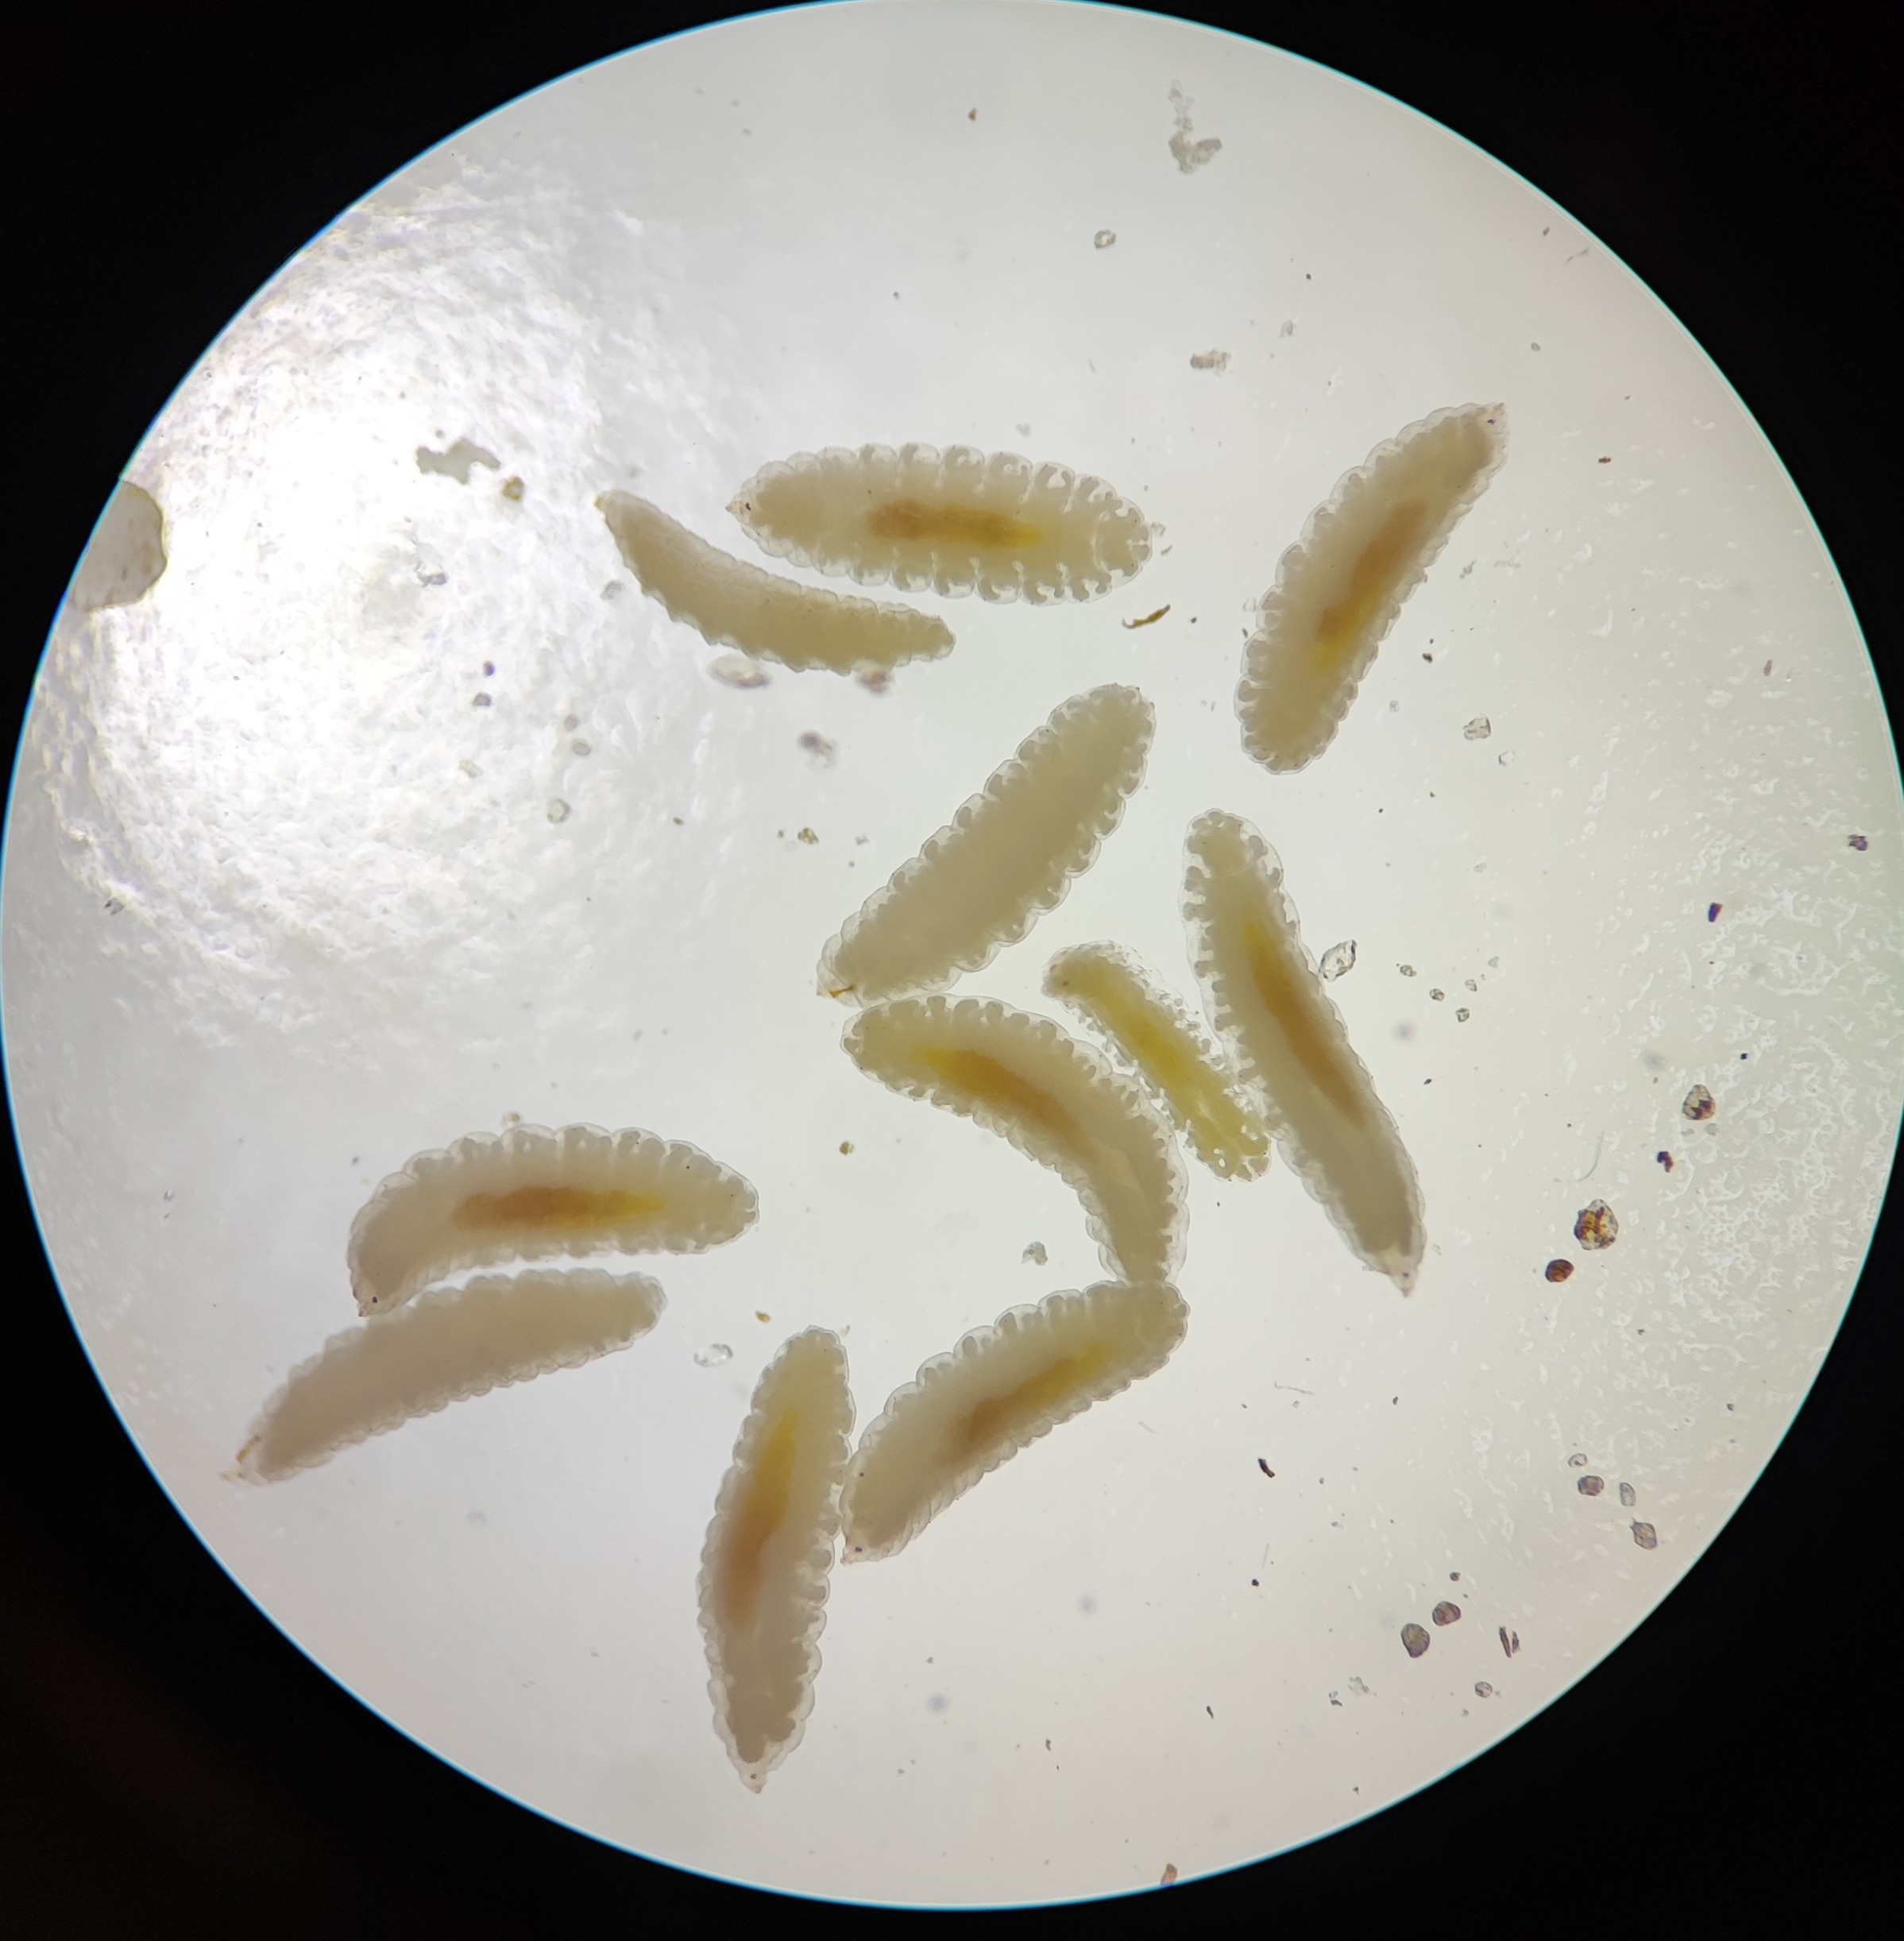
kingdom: Animalia
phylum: Arthropoda
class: Insecta
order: Diptera
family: Cecidomyiidae
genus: Neomikiella
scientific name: Neomikiella lychnidis
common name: Oldingegalmyg
